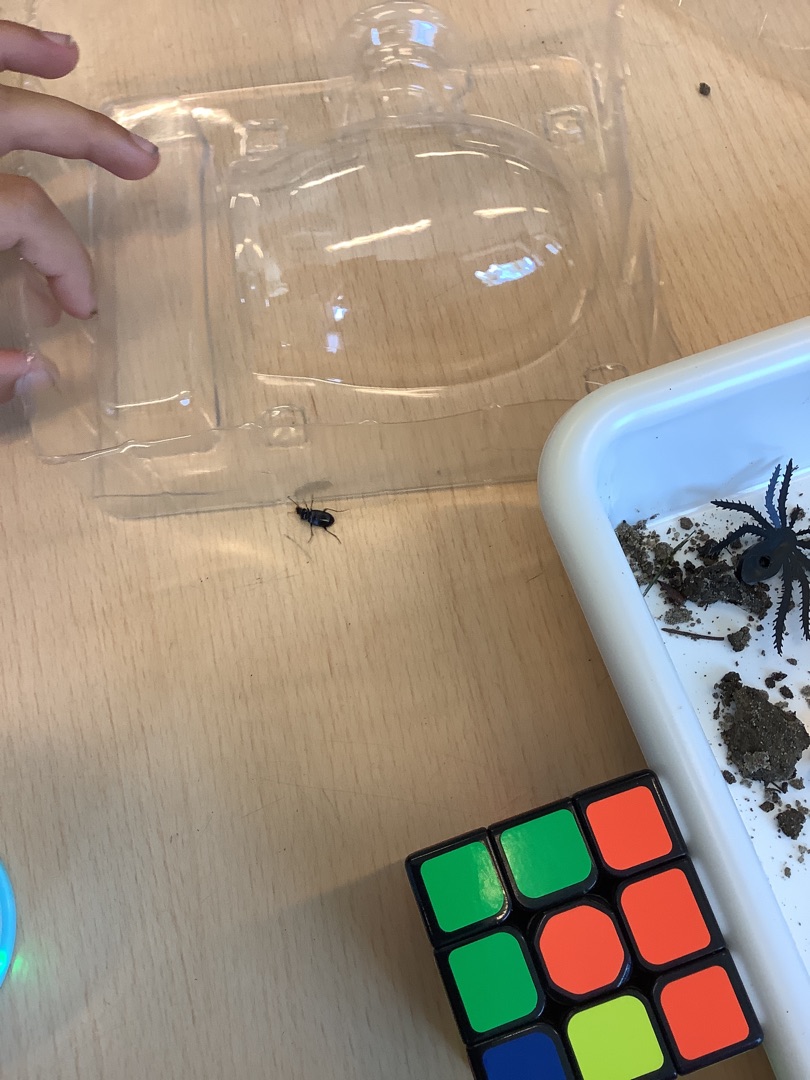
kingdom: Animalia
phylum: Arthropoda
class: Insecta
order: Coleoptera
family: Carabidae
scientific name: Carabidae
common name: Løbebiller
